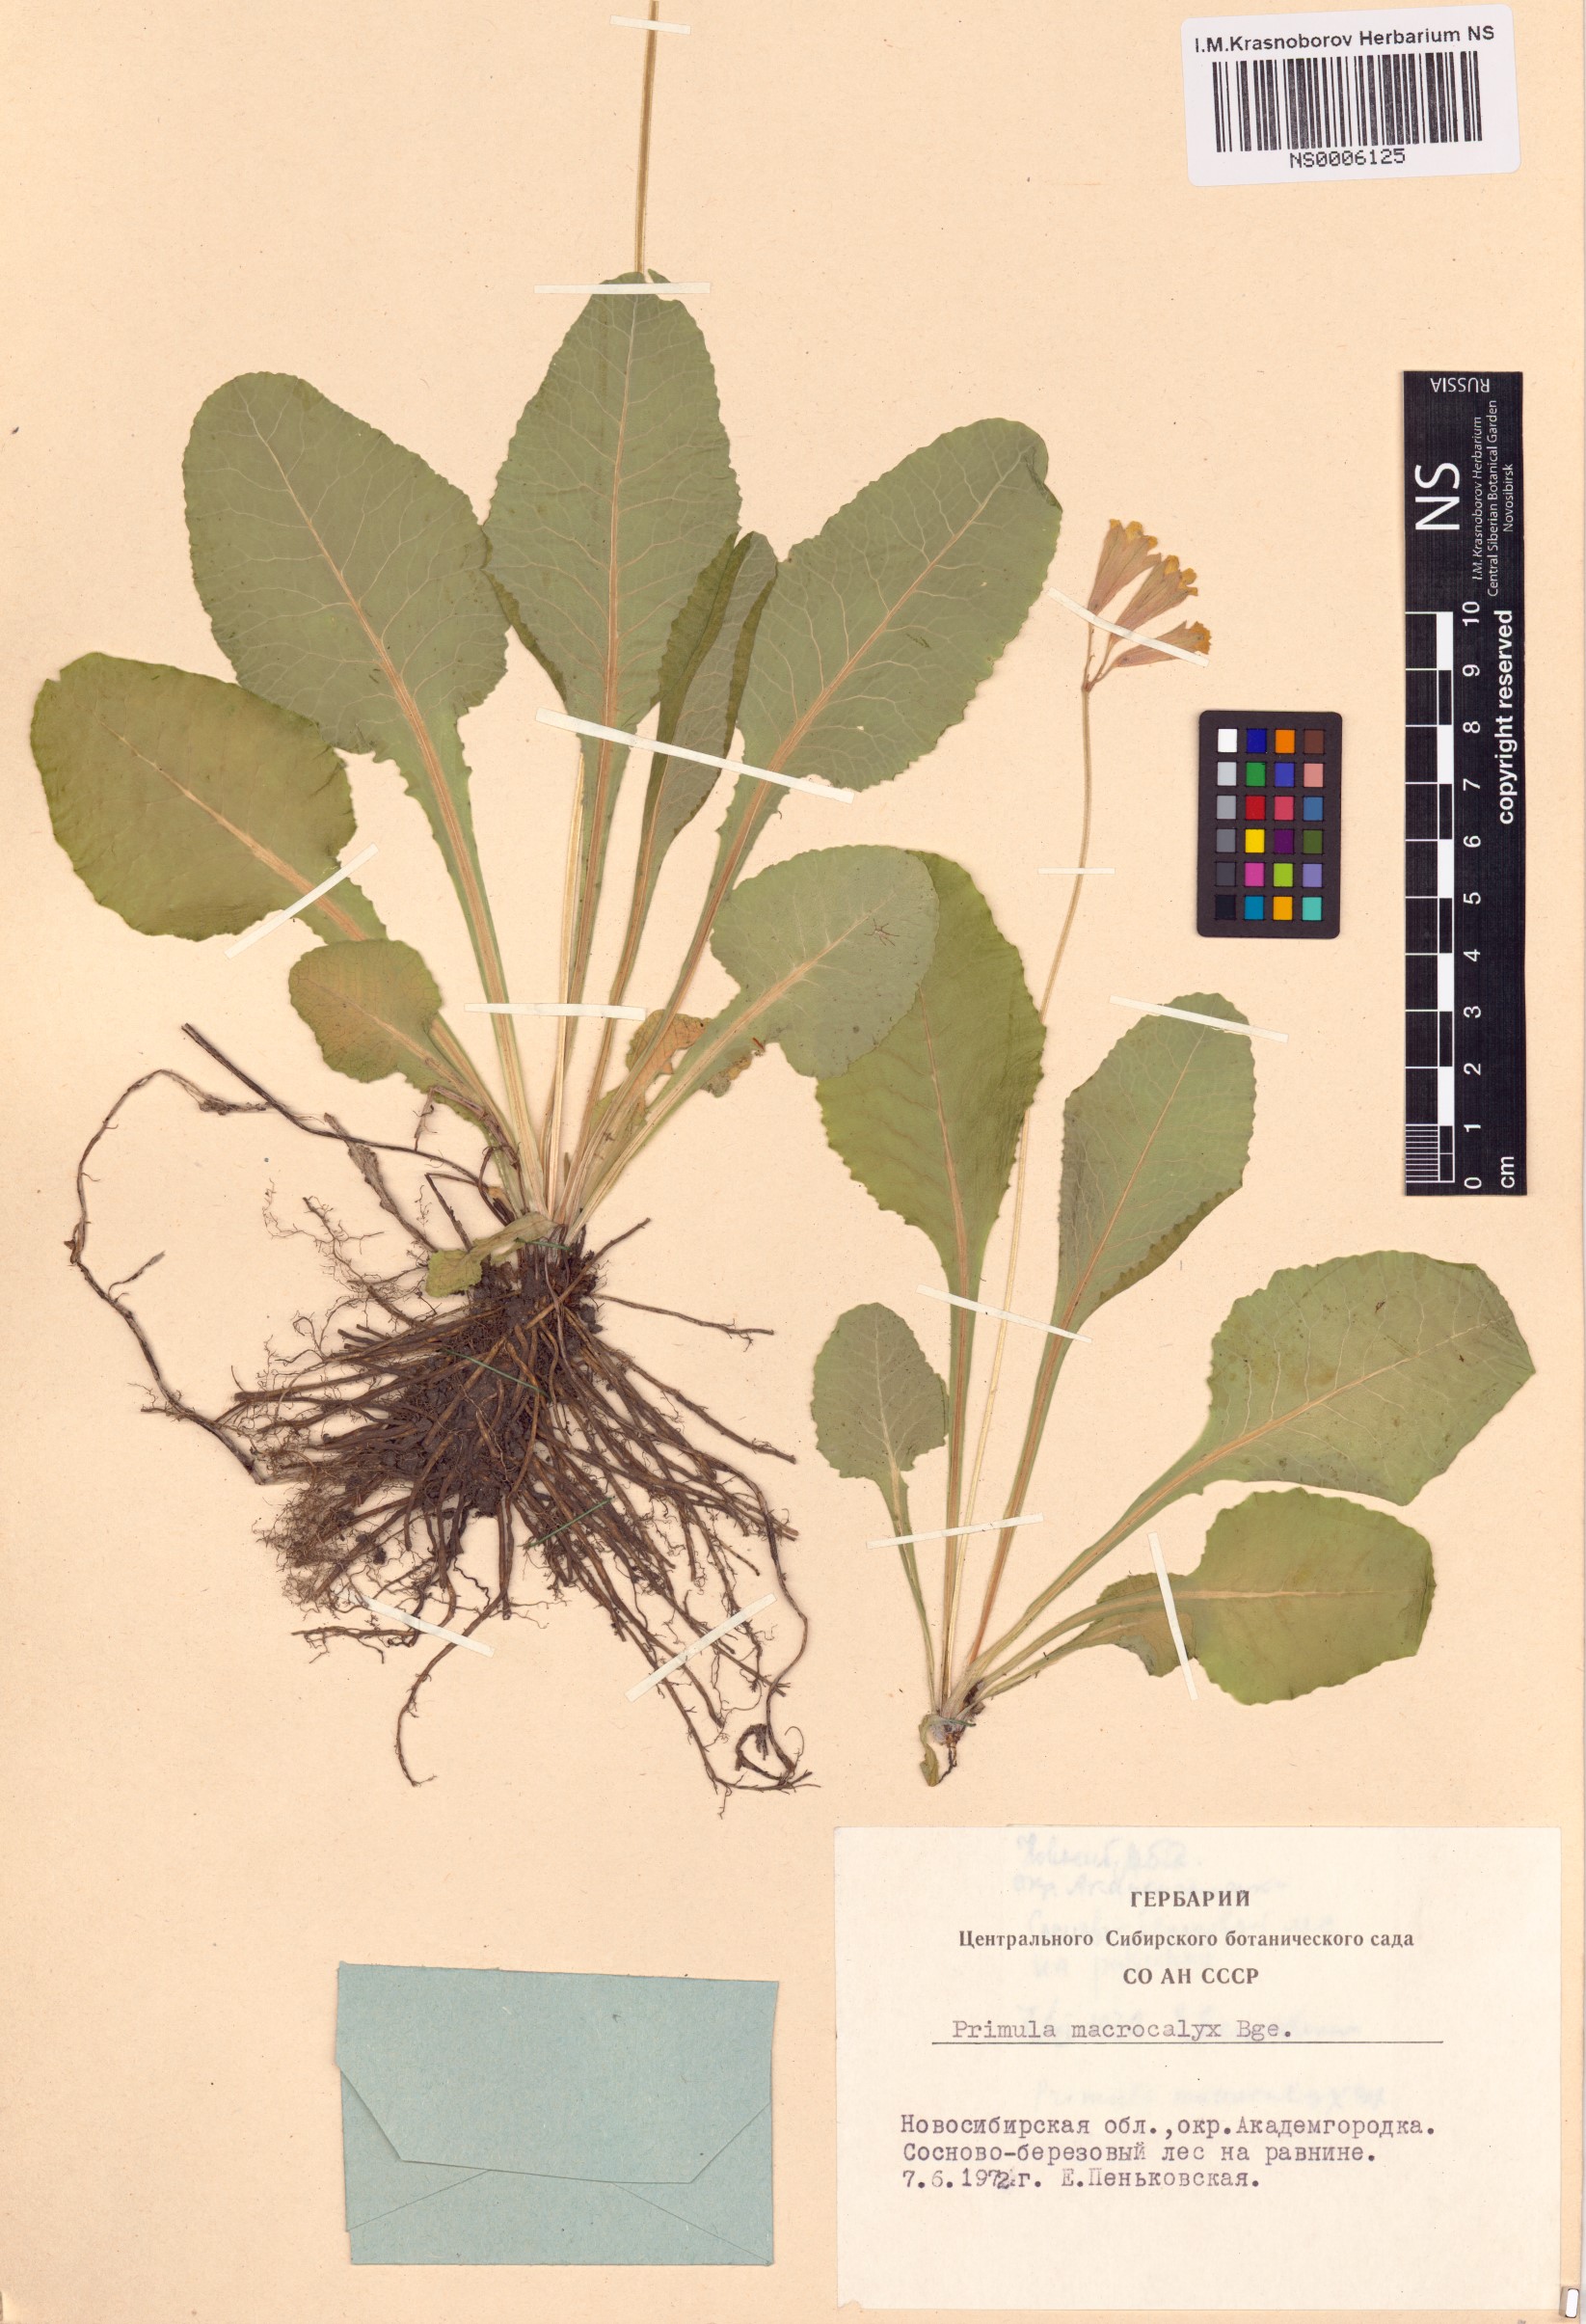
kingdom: Plantae
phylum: Tracheophyta
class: Magnoliopsida
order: Ericales
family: Primulaceae
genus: Primula
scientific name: Primula veris
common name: Cowslip
